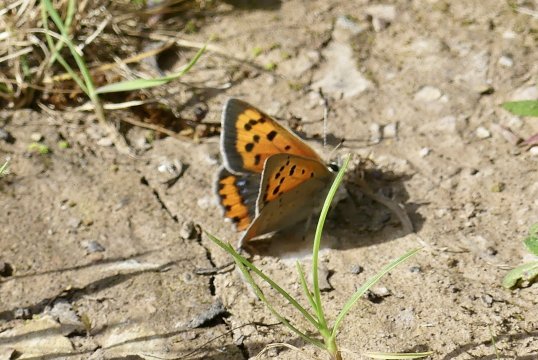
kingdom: Animalia
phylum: Arthropoda
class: Insecta
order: Lepidoptera
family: Lycaenidae
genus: Lycaena
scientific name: Lycaena phlaeas
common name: American Copper
